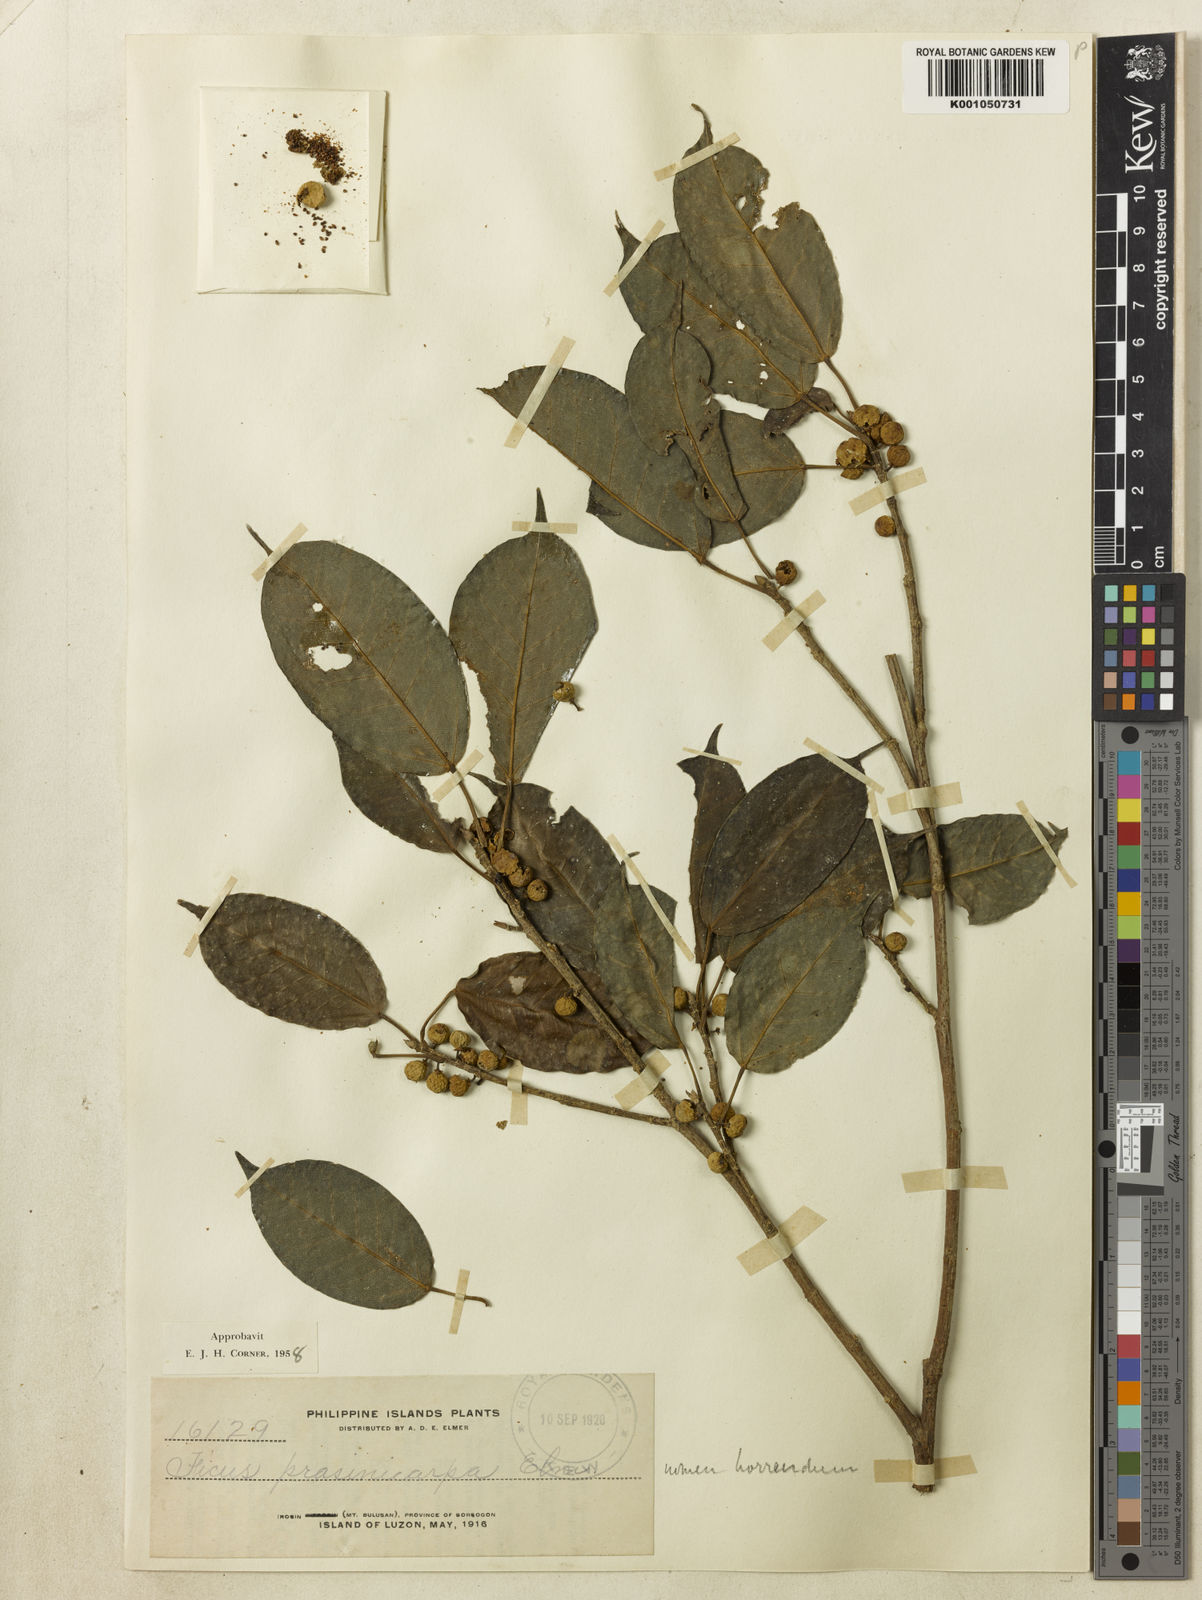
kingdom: Plantae
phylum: Tracheophyta
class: Magnoliopsida
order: Rosales
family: Moraceae
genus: Ficus
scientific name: Ficus
